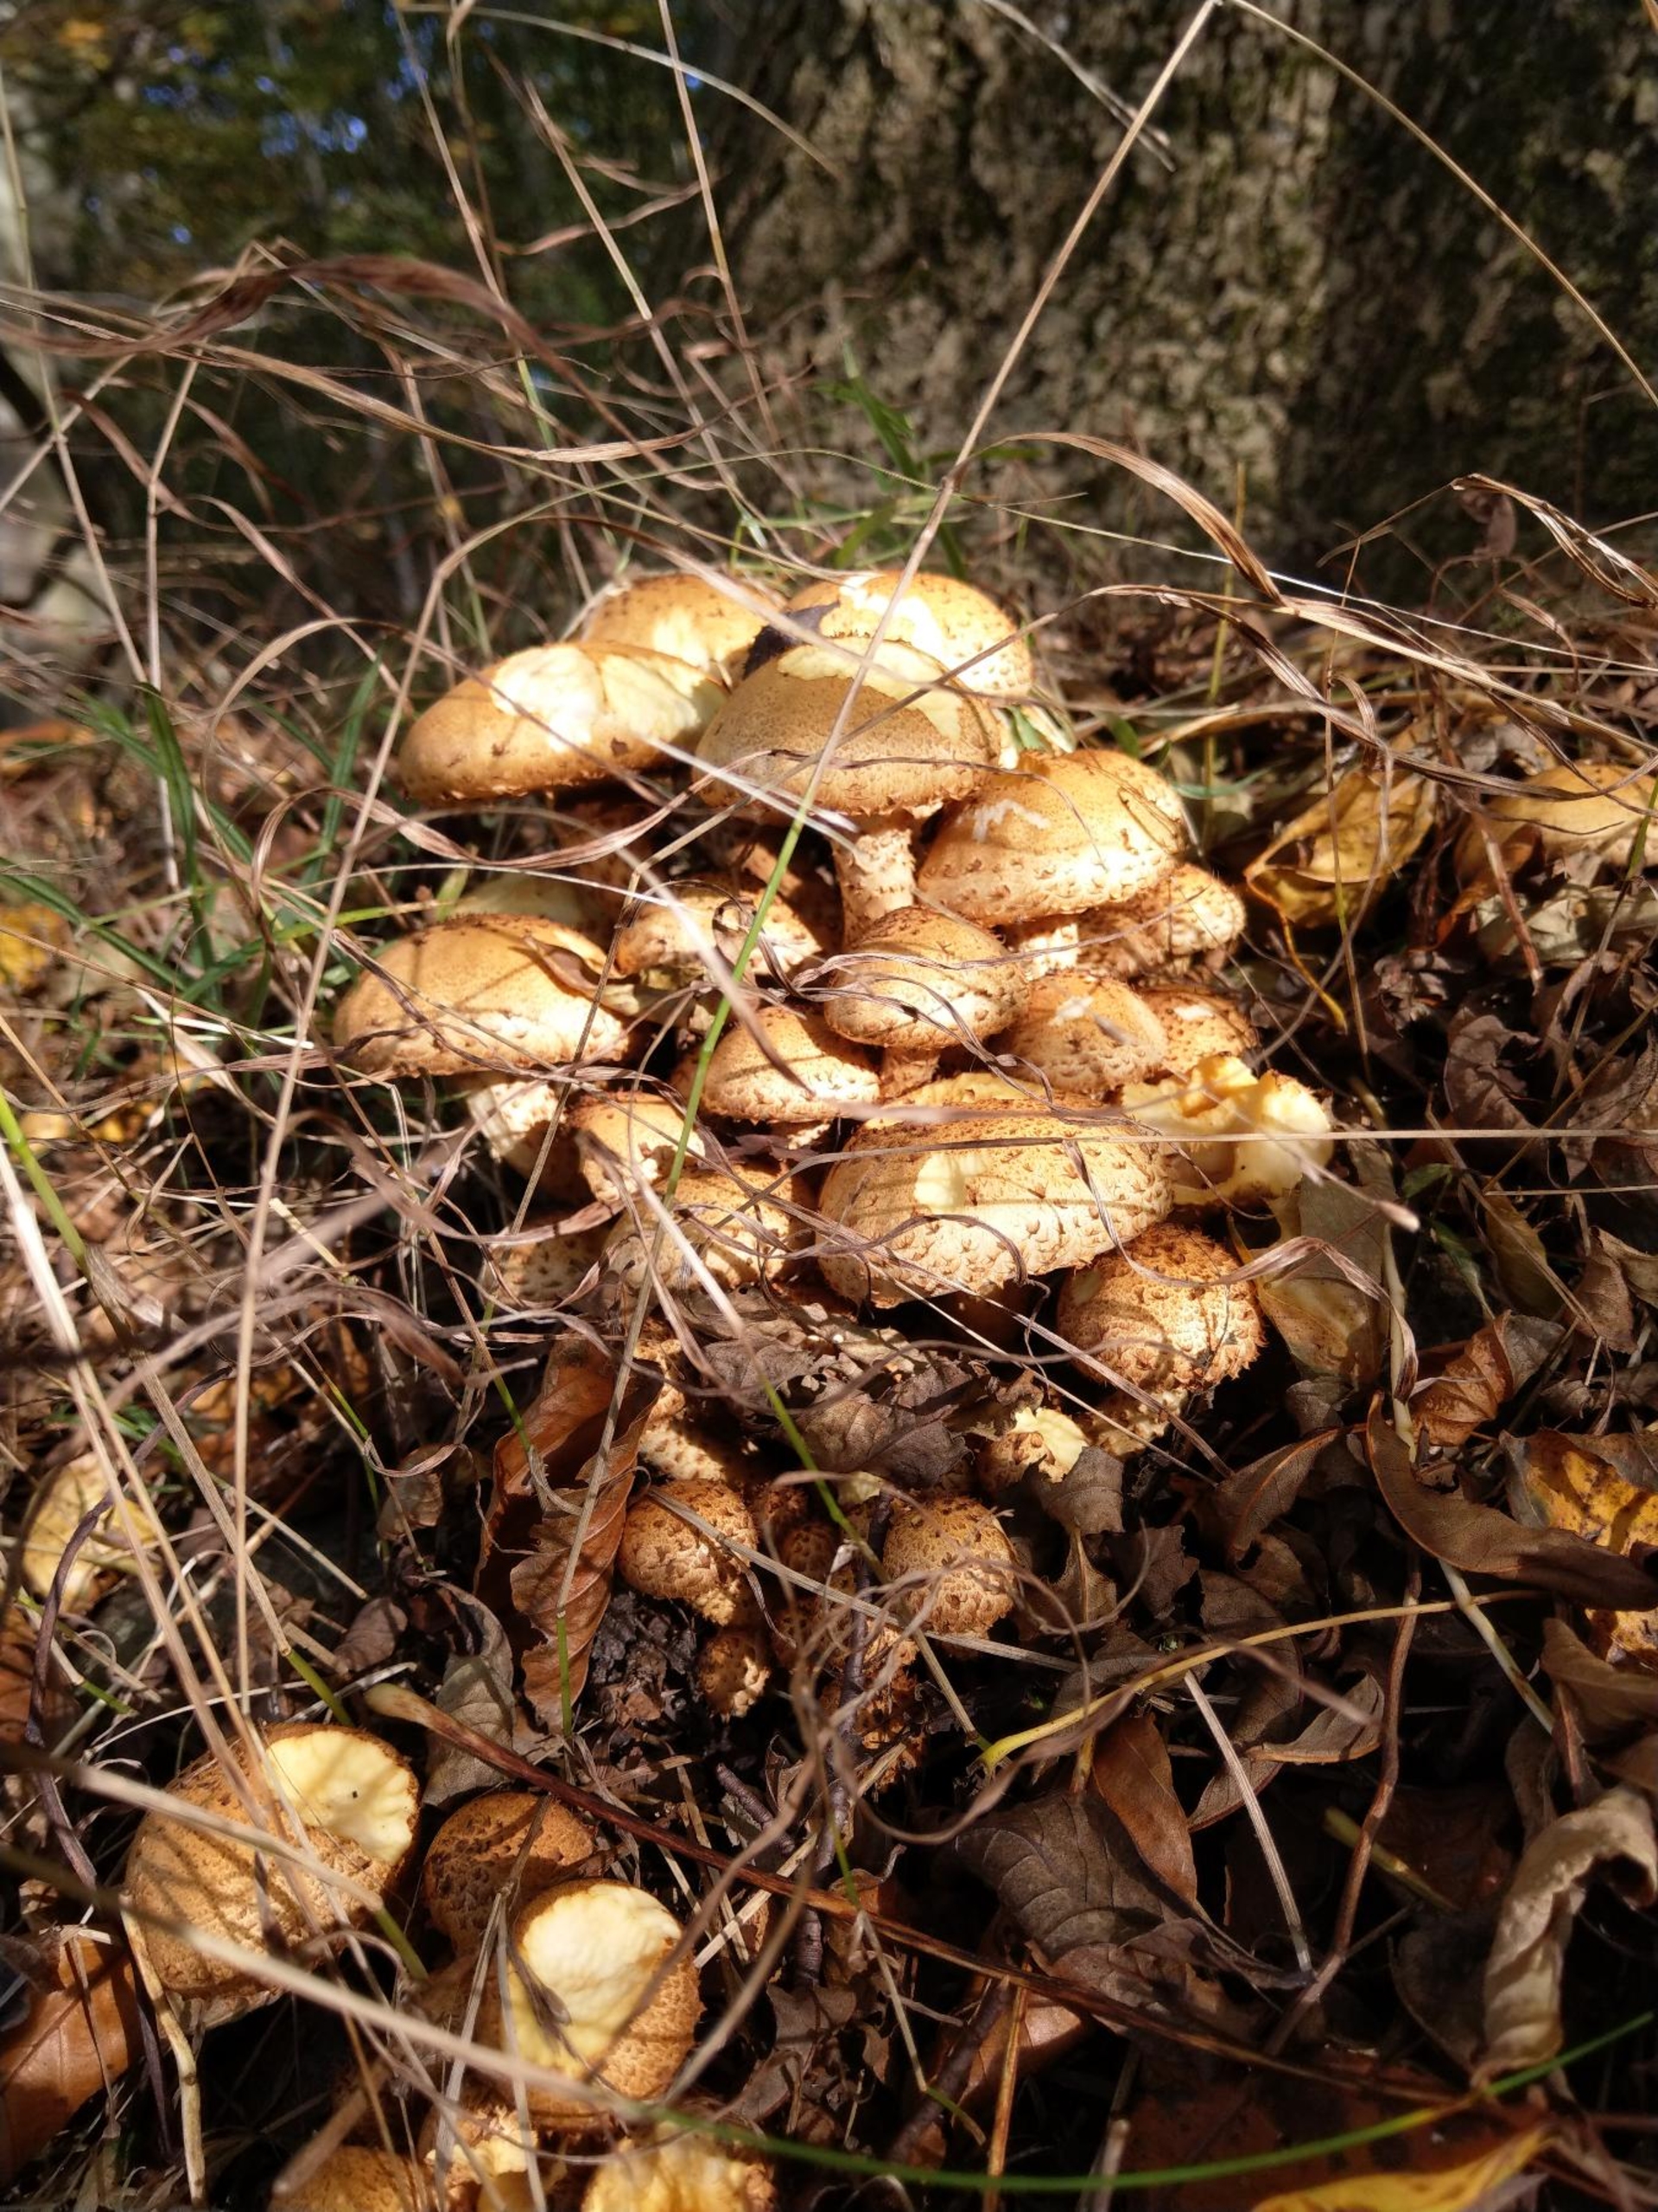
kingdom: Fungi
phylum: Basidiomycota
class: Agaricomycetes
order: Agaricales
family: Strophariaceae
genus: Pholiota
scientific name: Pholiota squarrosa
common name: Krumskællet skælhat
